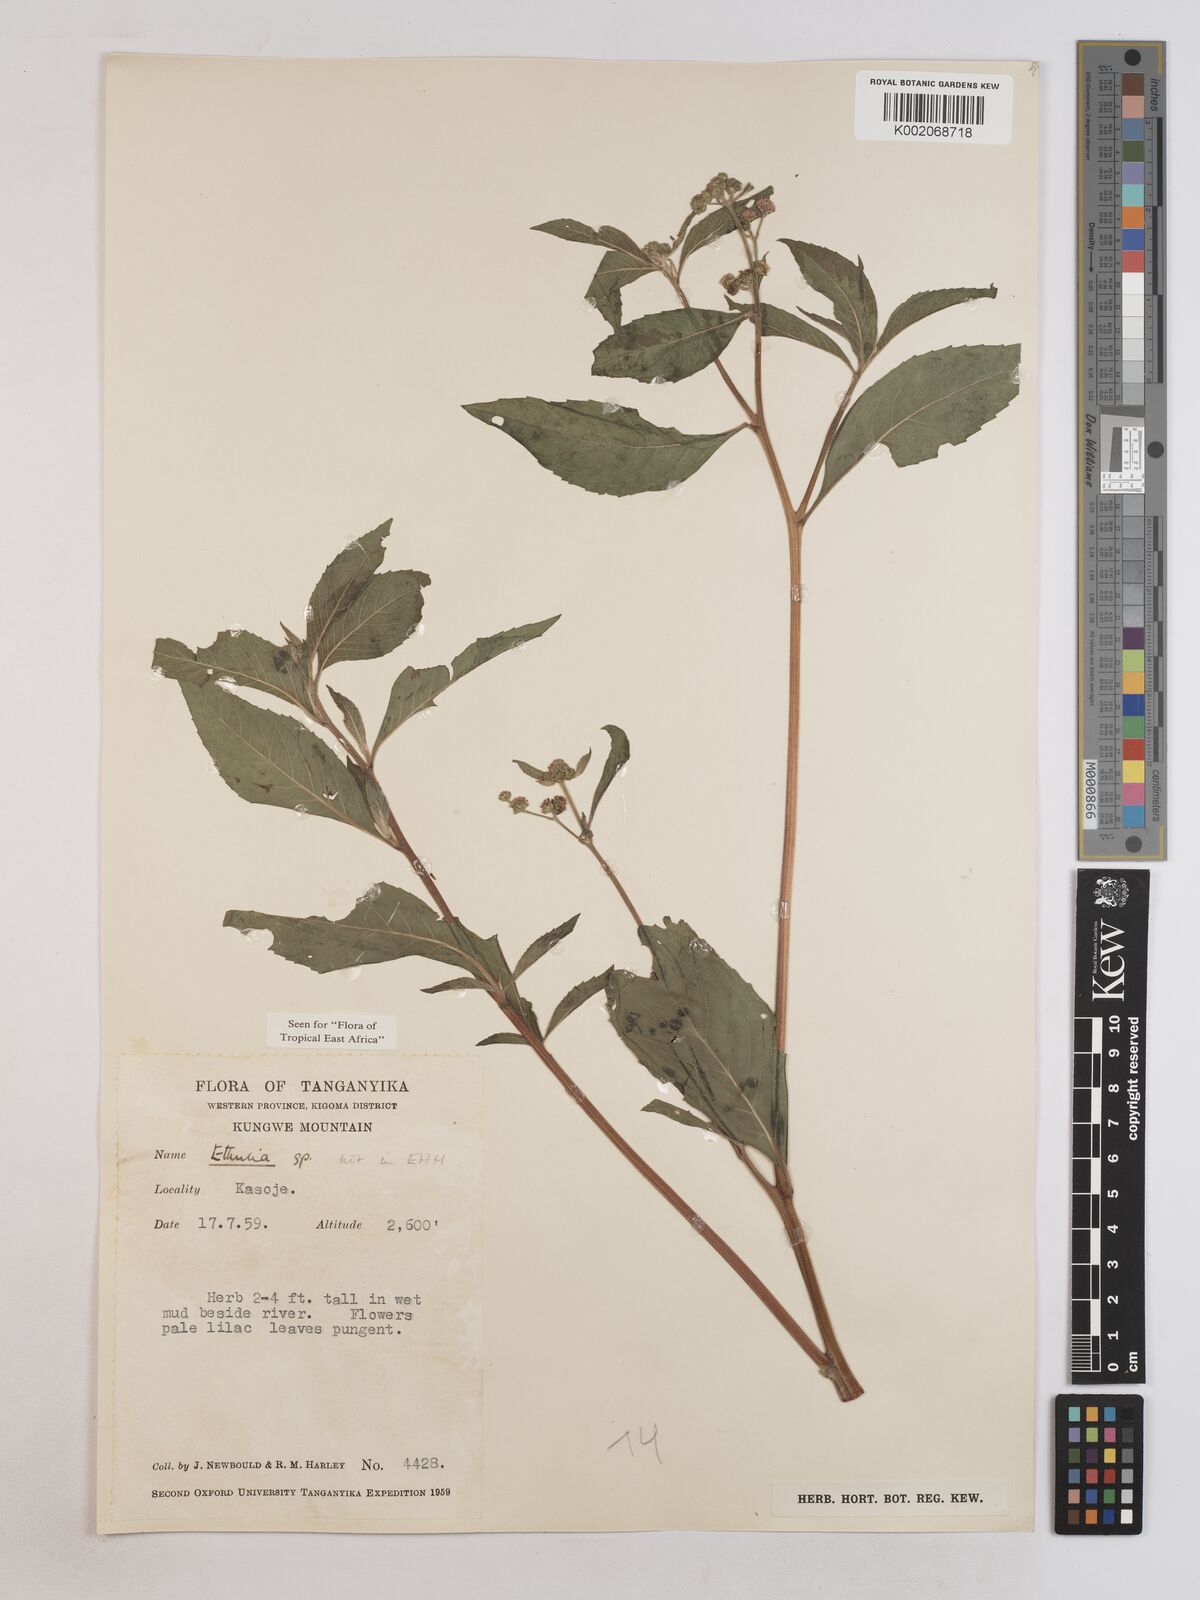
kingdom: Plantae
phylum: Tracheophyta
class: Magnoliopsida
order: Asterales
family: Asteraceae
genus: Ethulia
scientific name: Ethulia conyzoides
